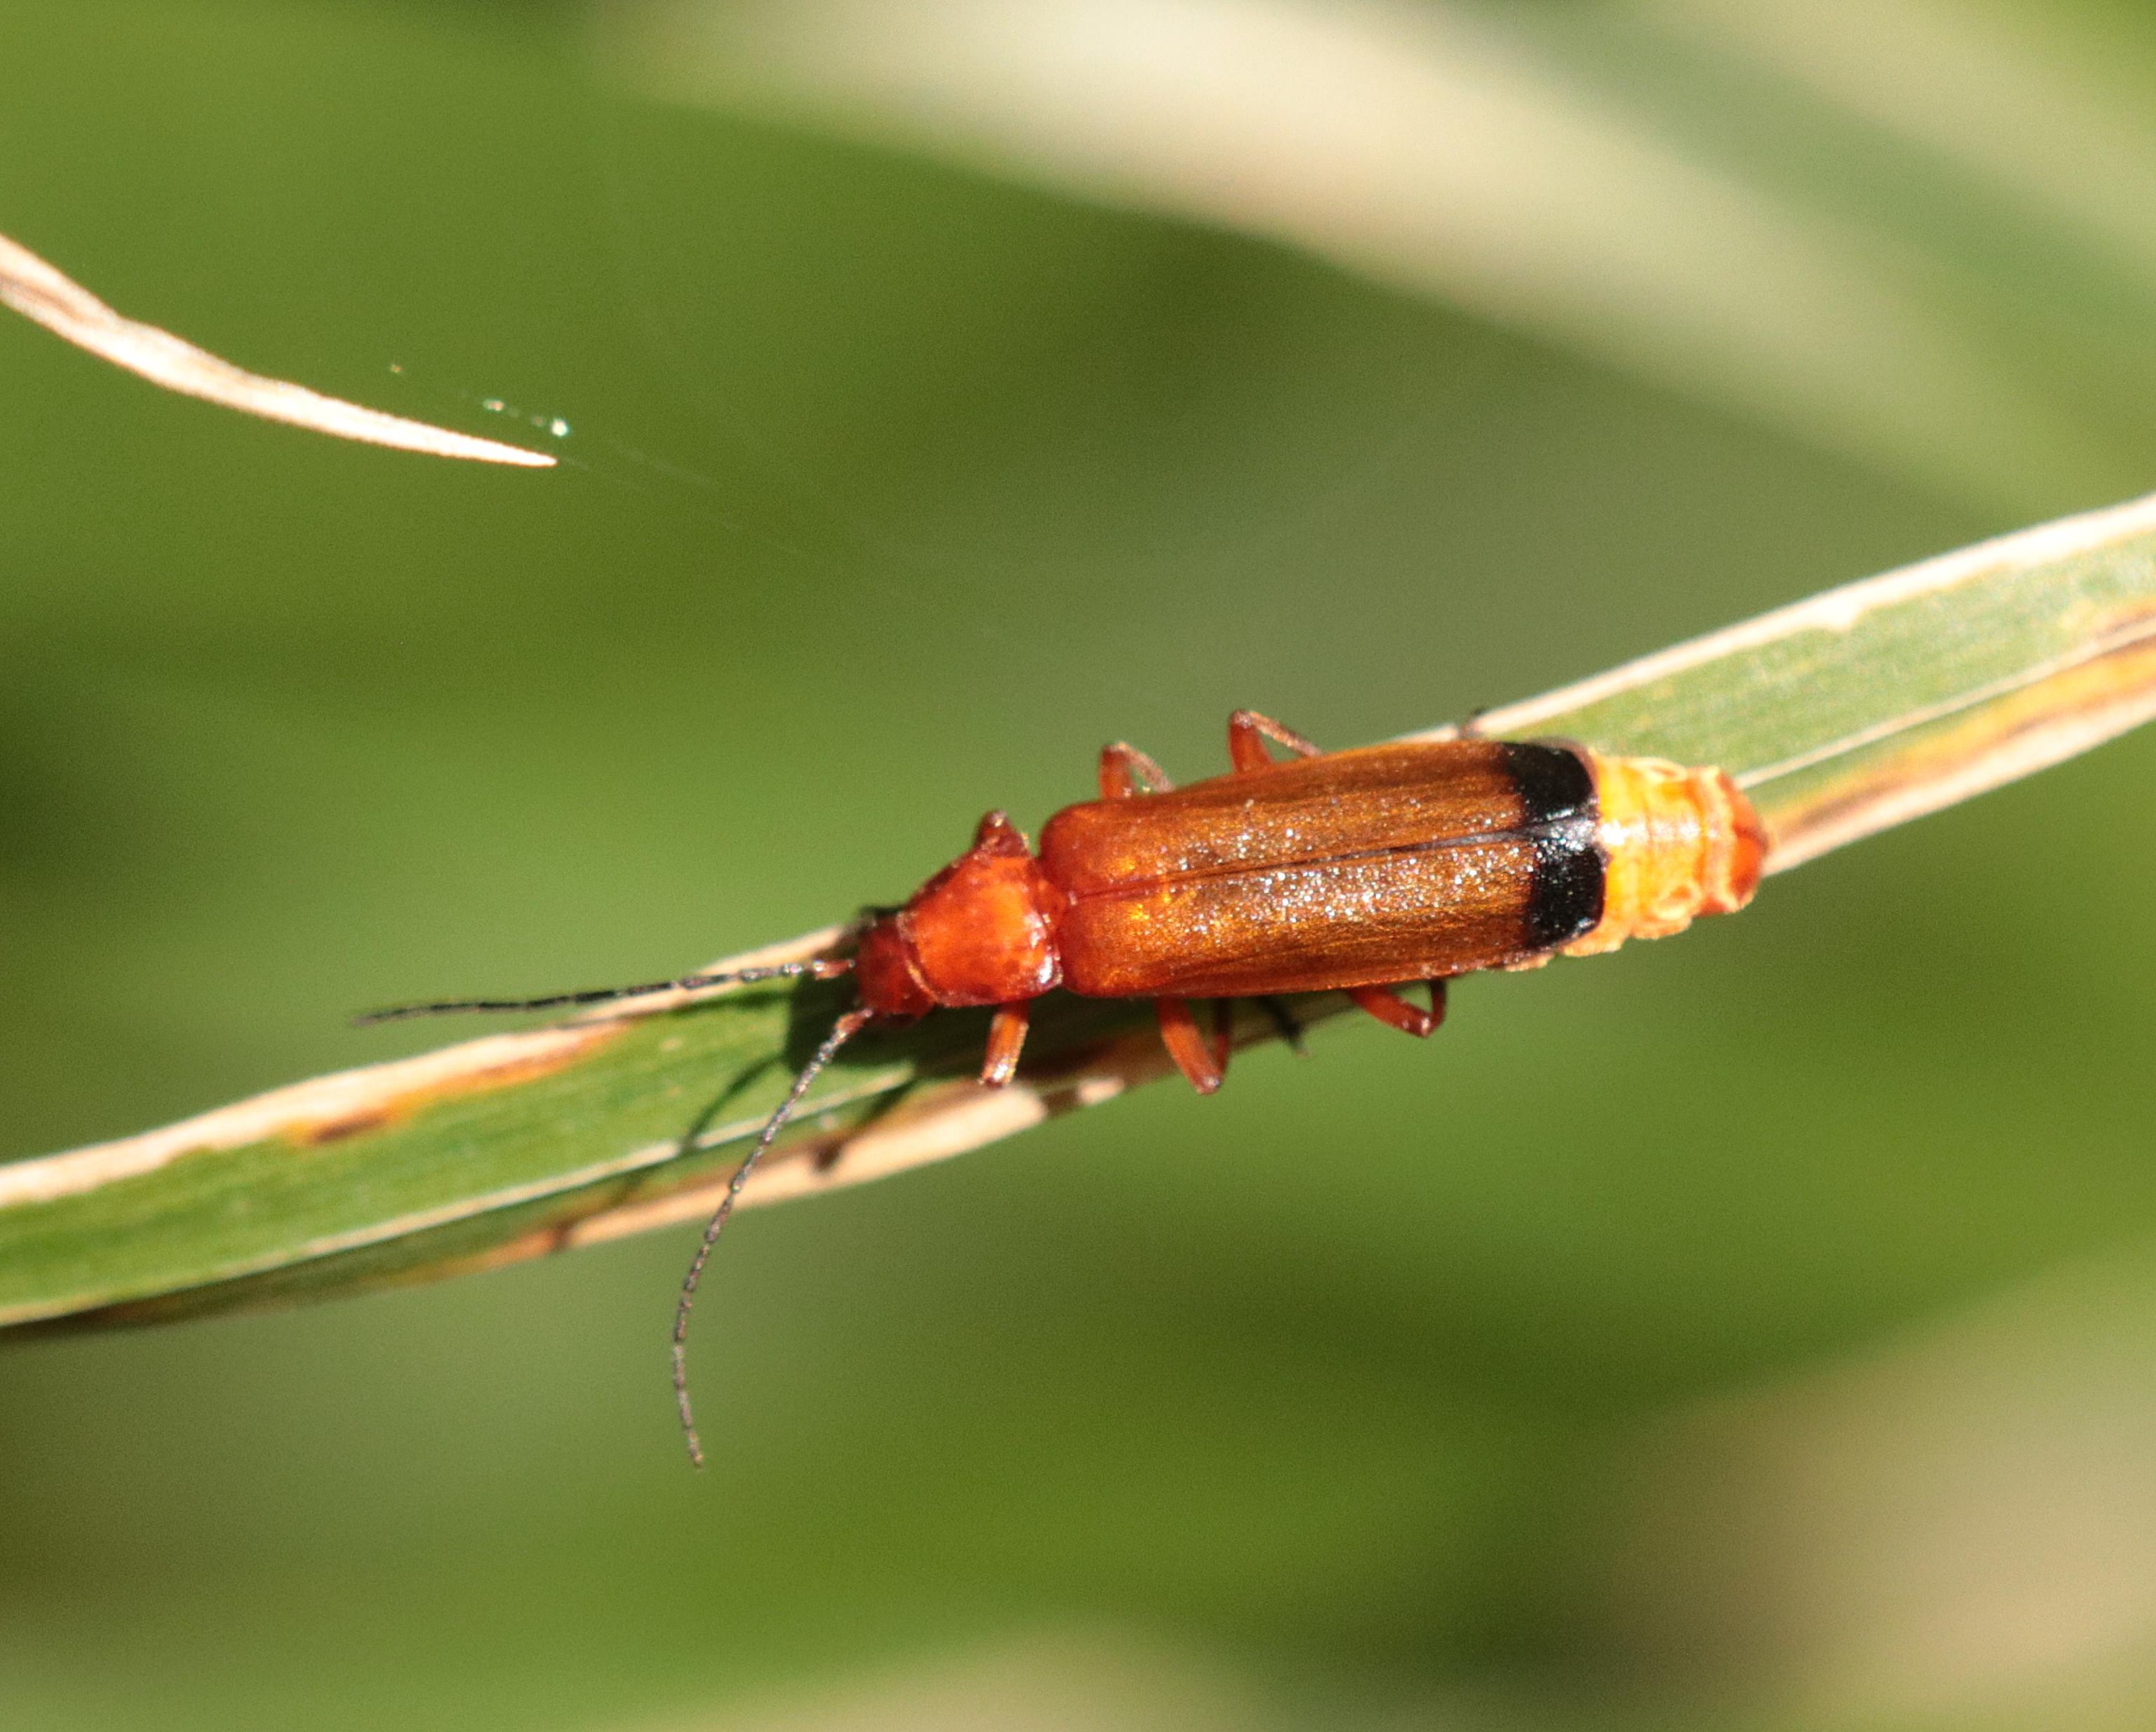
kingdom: Animalia
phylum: Arthropoda
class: Insecta
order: Coleoptera
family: Cantharidae
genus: Rhagonycha
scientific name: Rhagonycha fulva
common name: Præstebille
